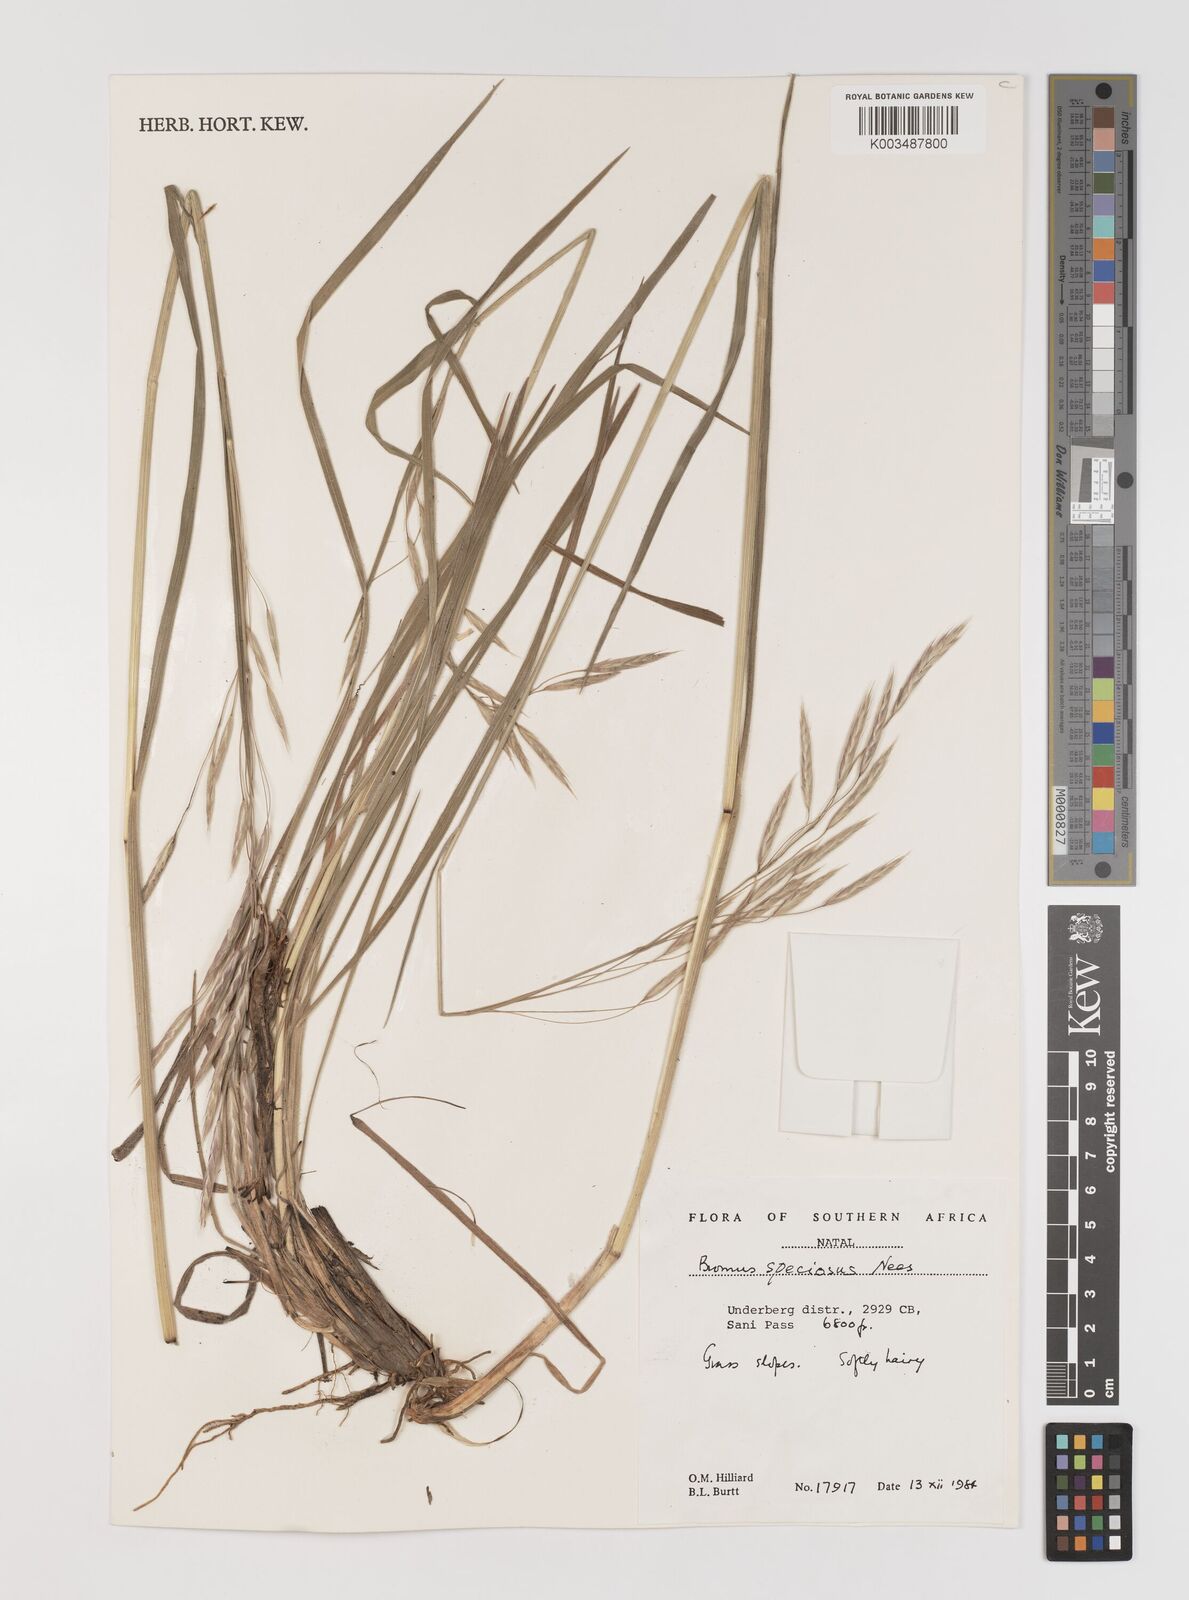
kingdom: Plantae
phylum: Tracheophyta
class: Liliopsida
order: Poales
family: Poaceae
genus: Bromus
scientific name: Bromus speciosus
